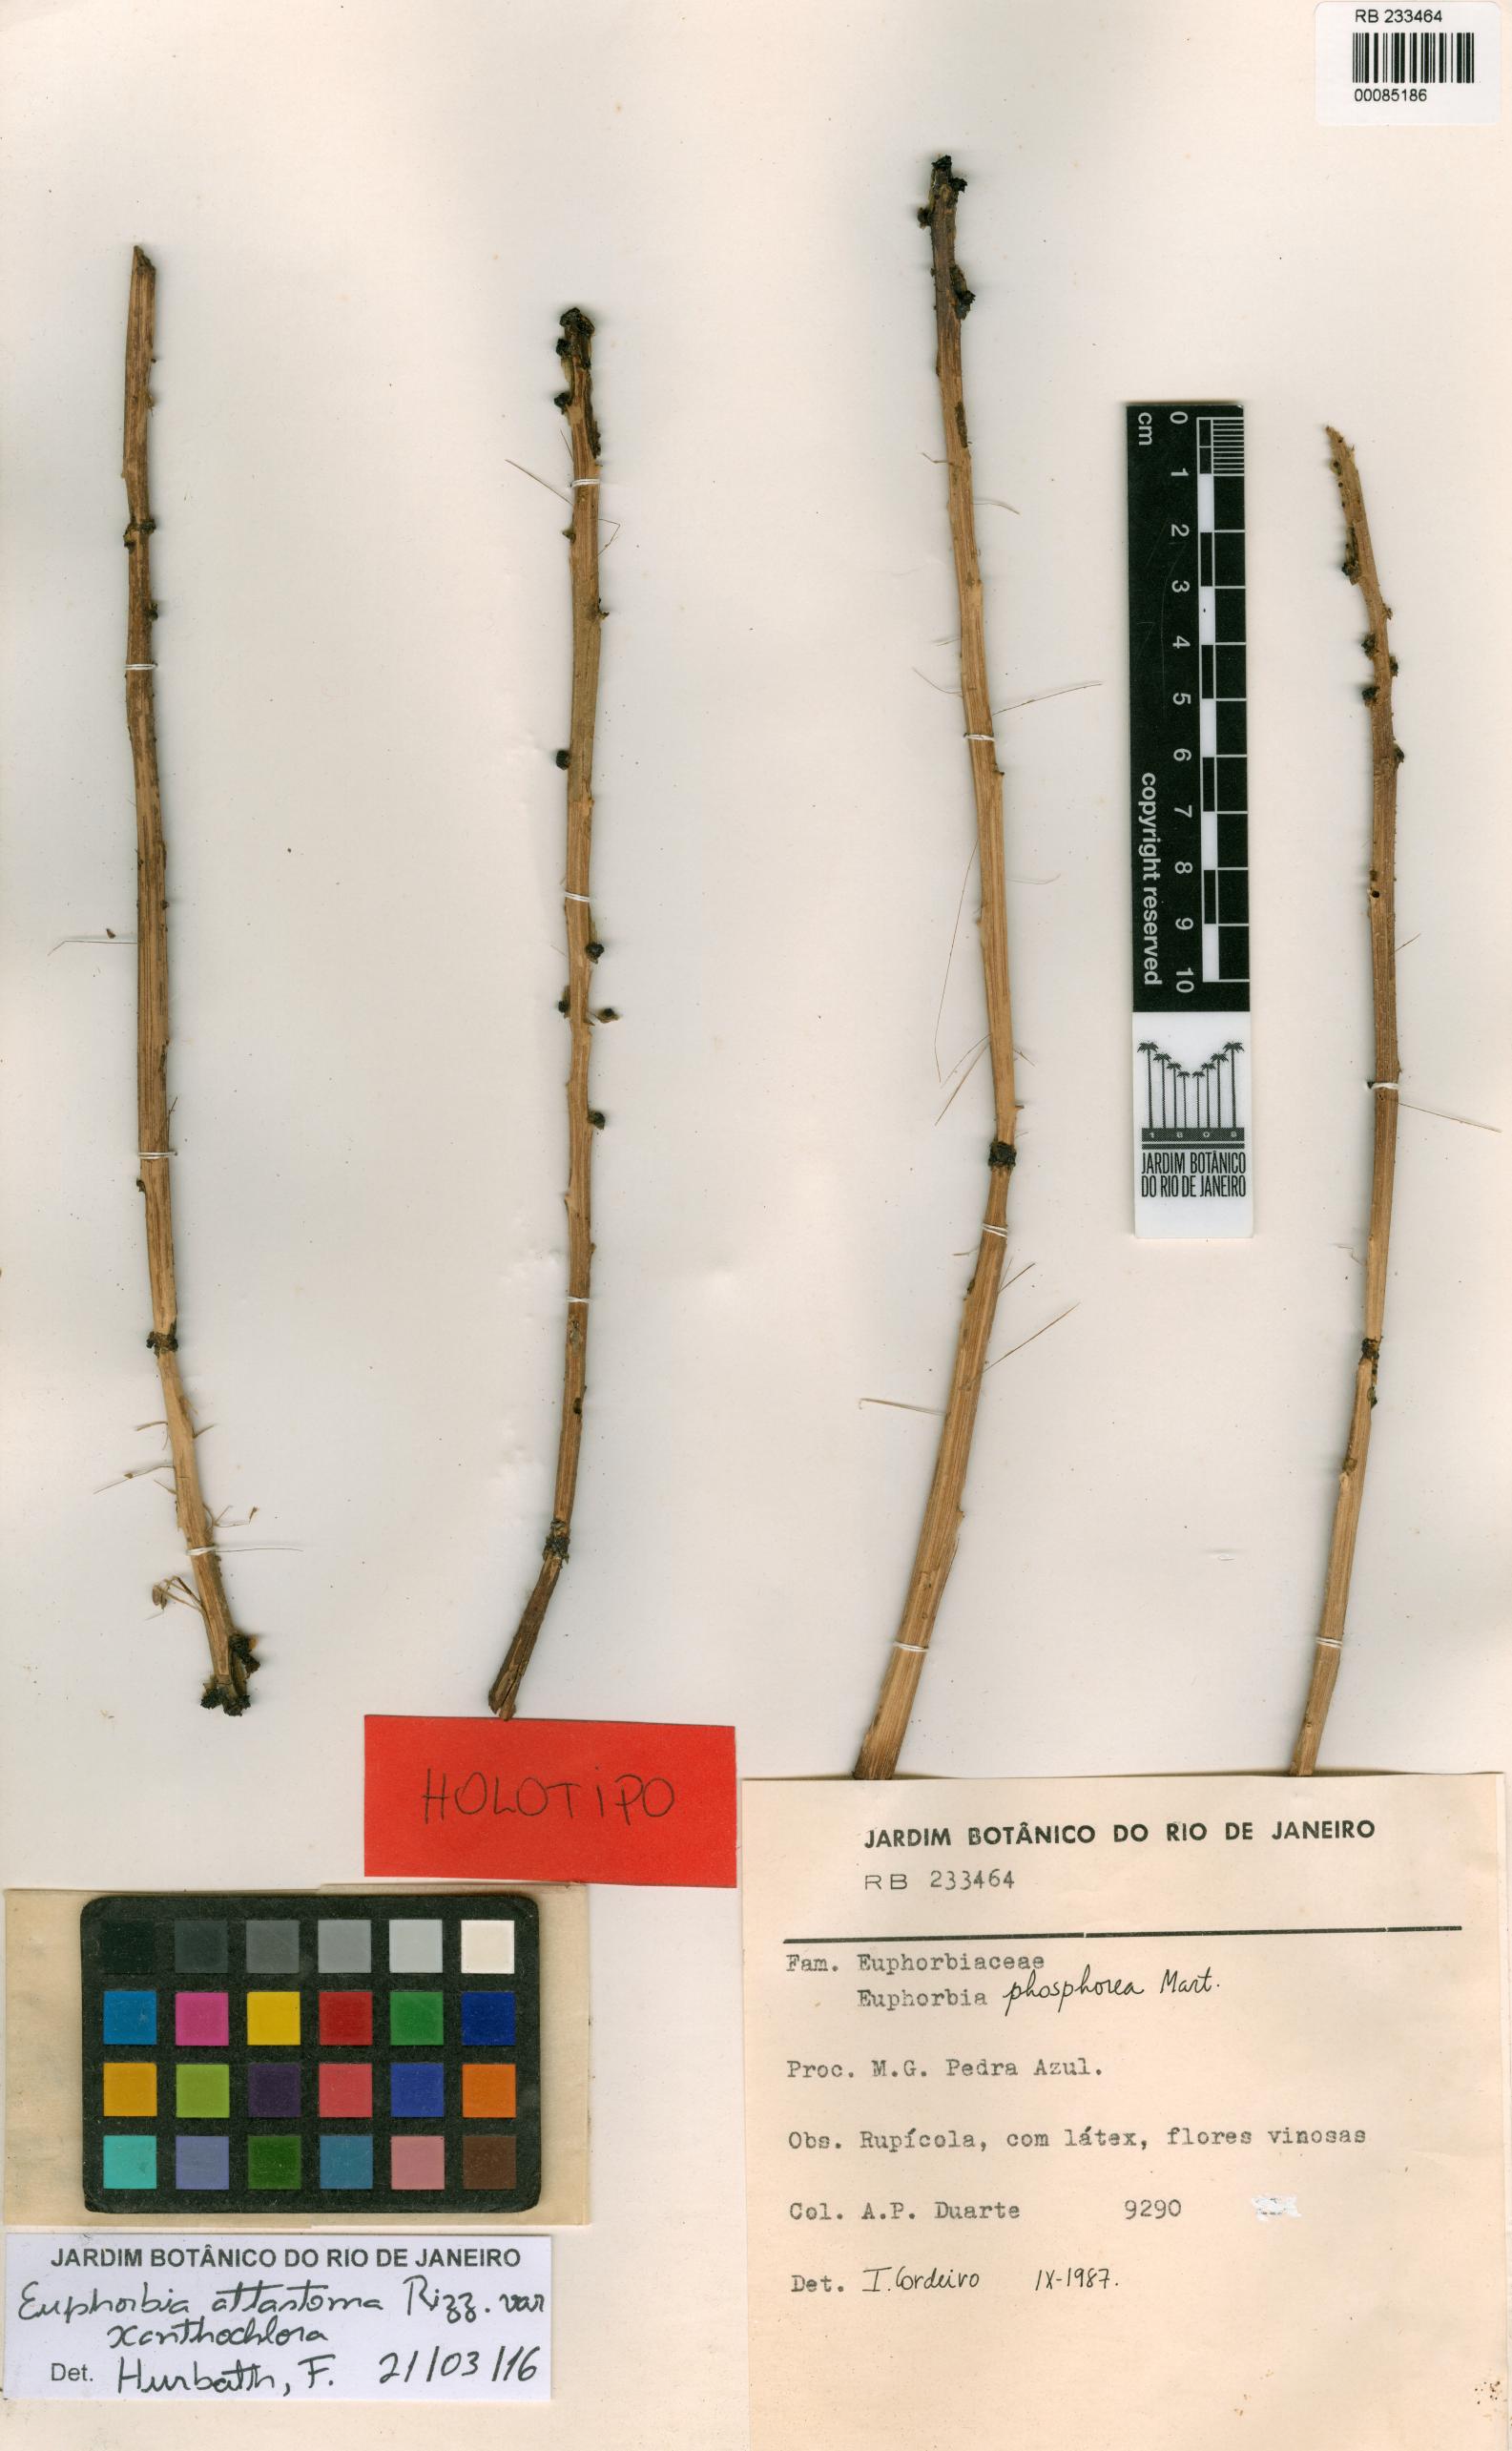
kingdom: Plantae
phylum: Tracheophyta
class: Magnoliopsida
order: Malpighiales
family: Euphorbiaceae
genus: Euphorbia
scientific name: Euphorbia attastoma
